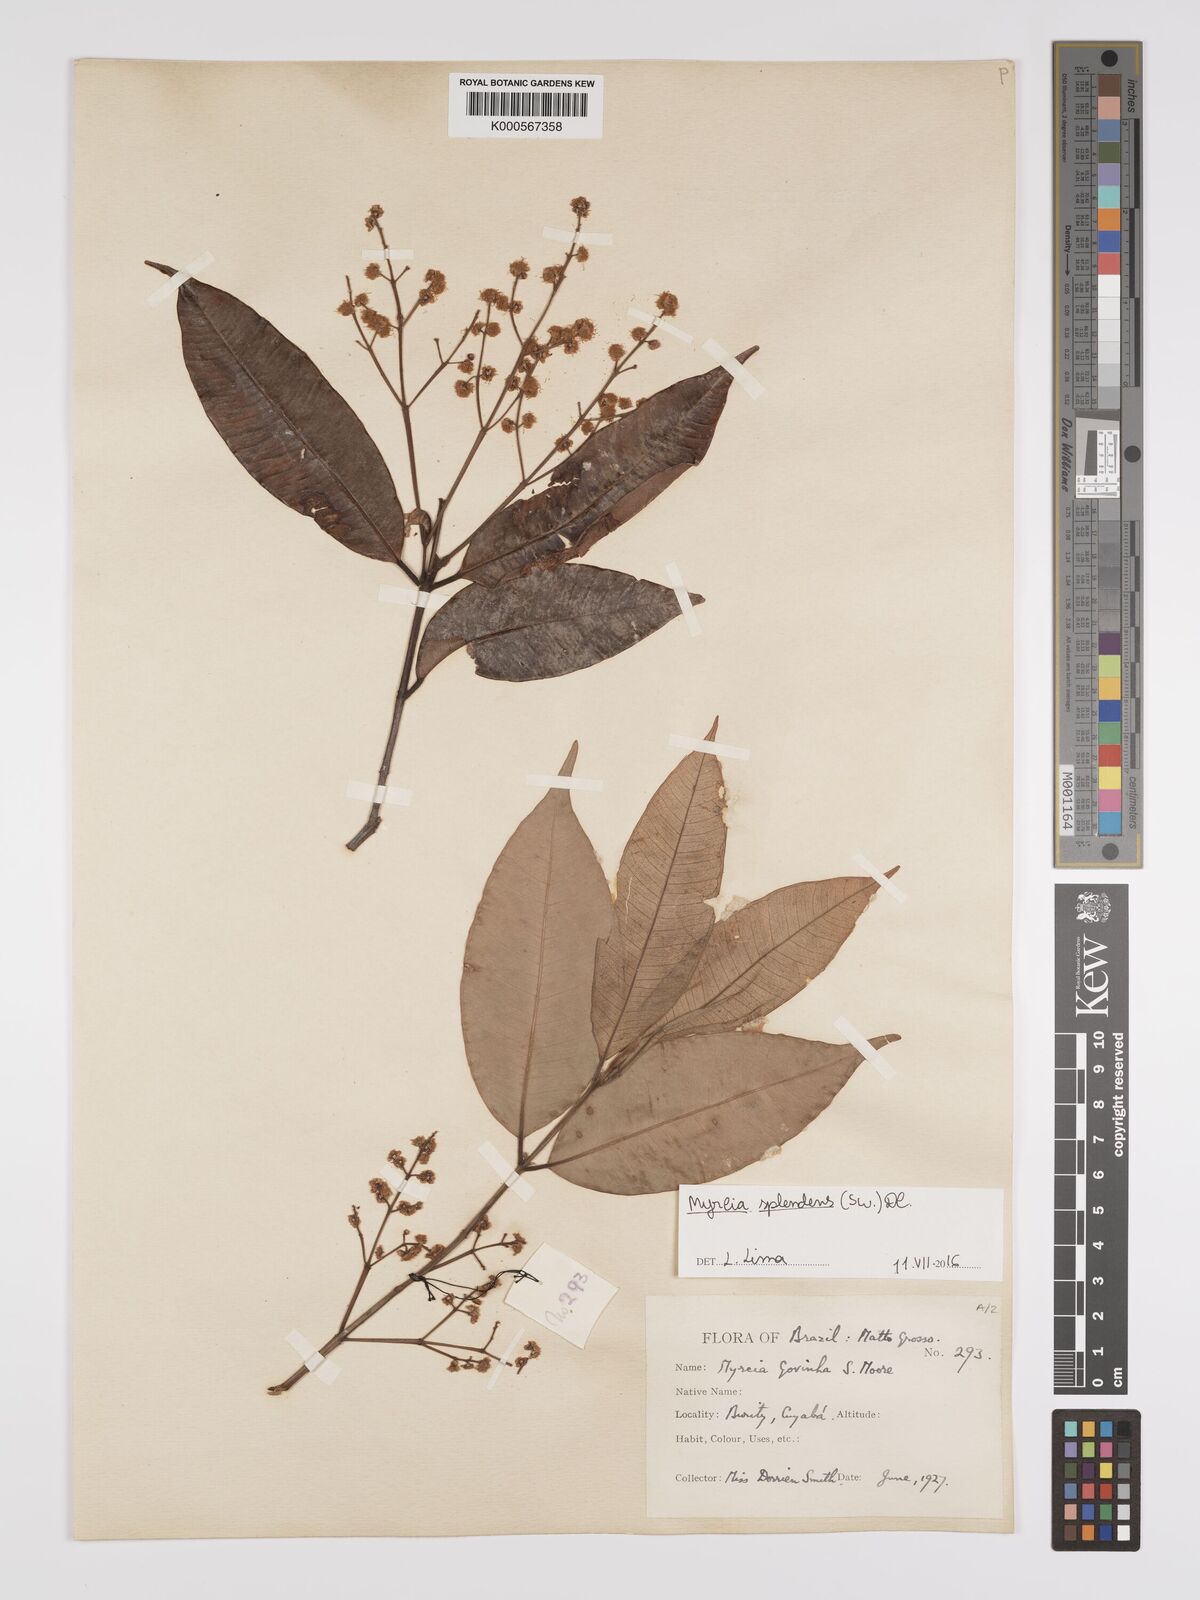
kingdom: Plantae
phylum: Tracheophyta
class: Magnoliopsida
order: Myrtales
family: Myrtaceae
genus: Myrcia
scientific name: Myrcia splendens
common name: Surinam cherry
